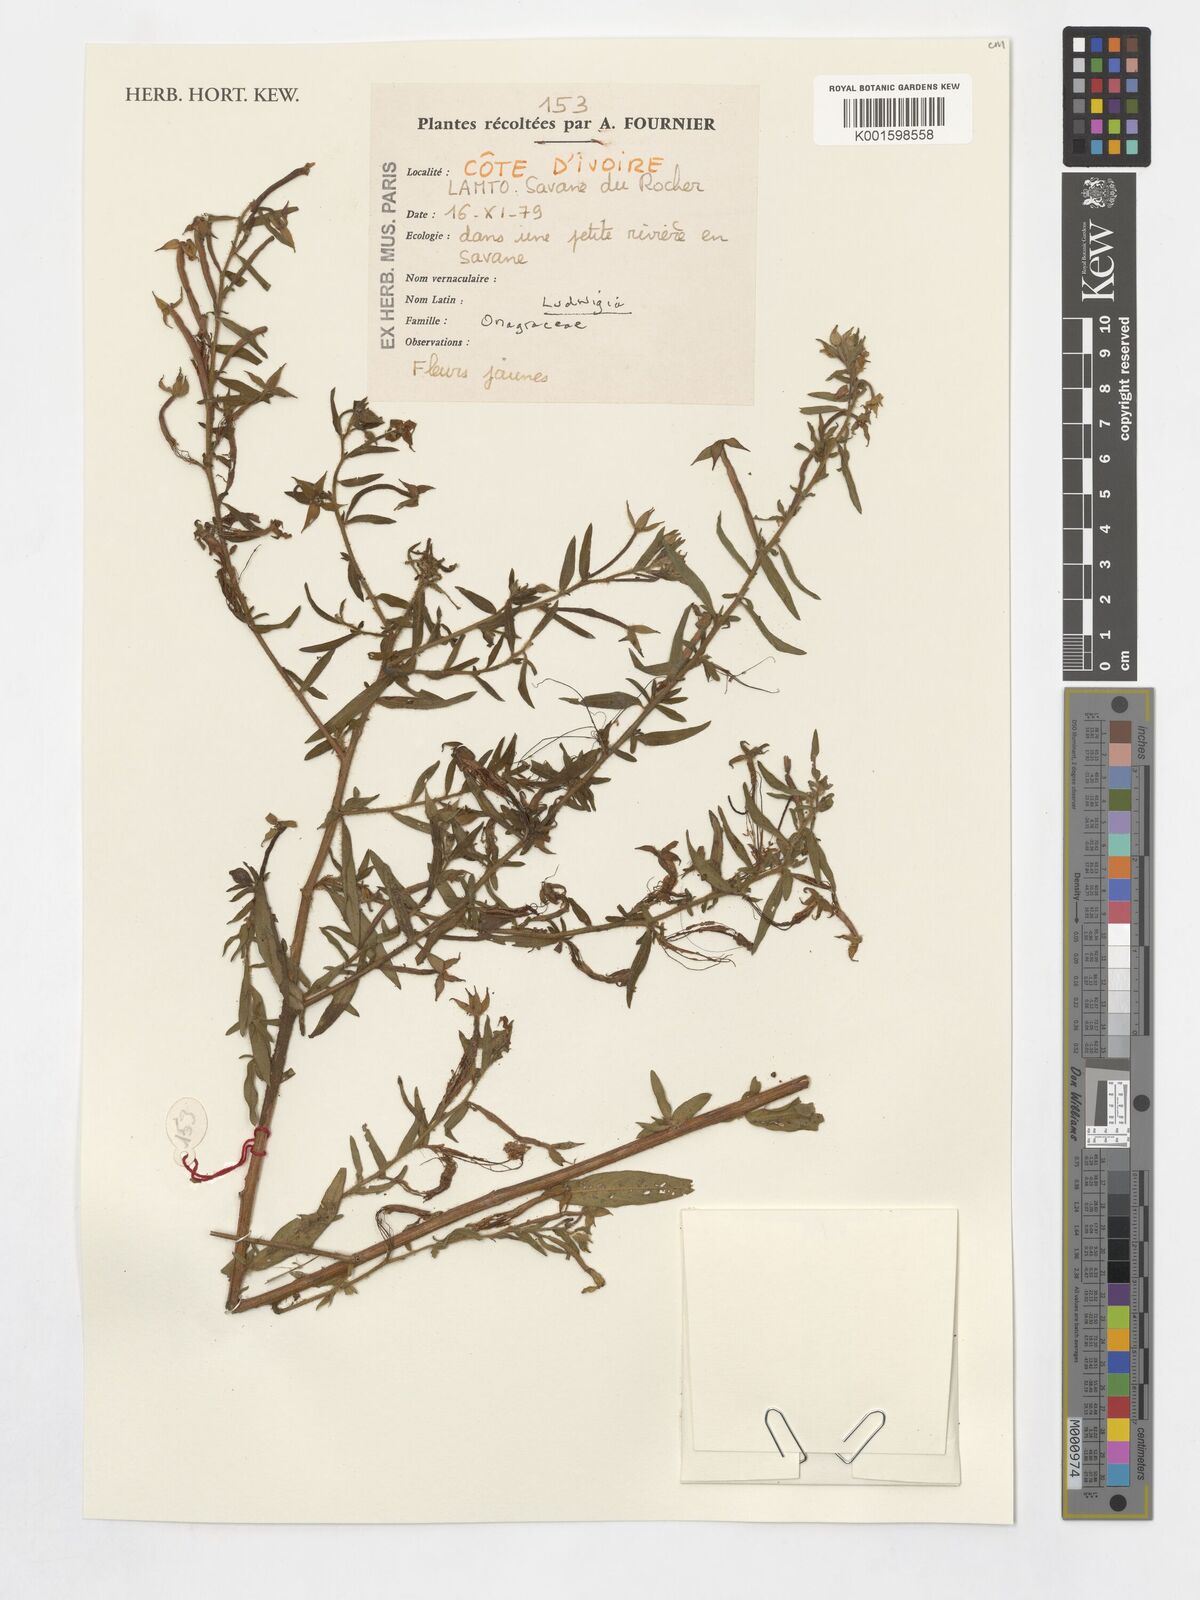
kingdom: Plantae
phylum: Tracheophyta
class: Magnoliopsida
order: Myrtales
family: Onagraceae
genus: Ludwigia
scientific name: Ludwigia
